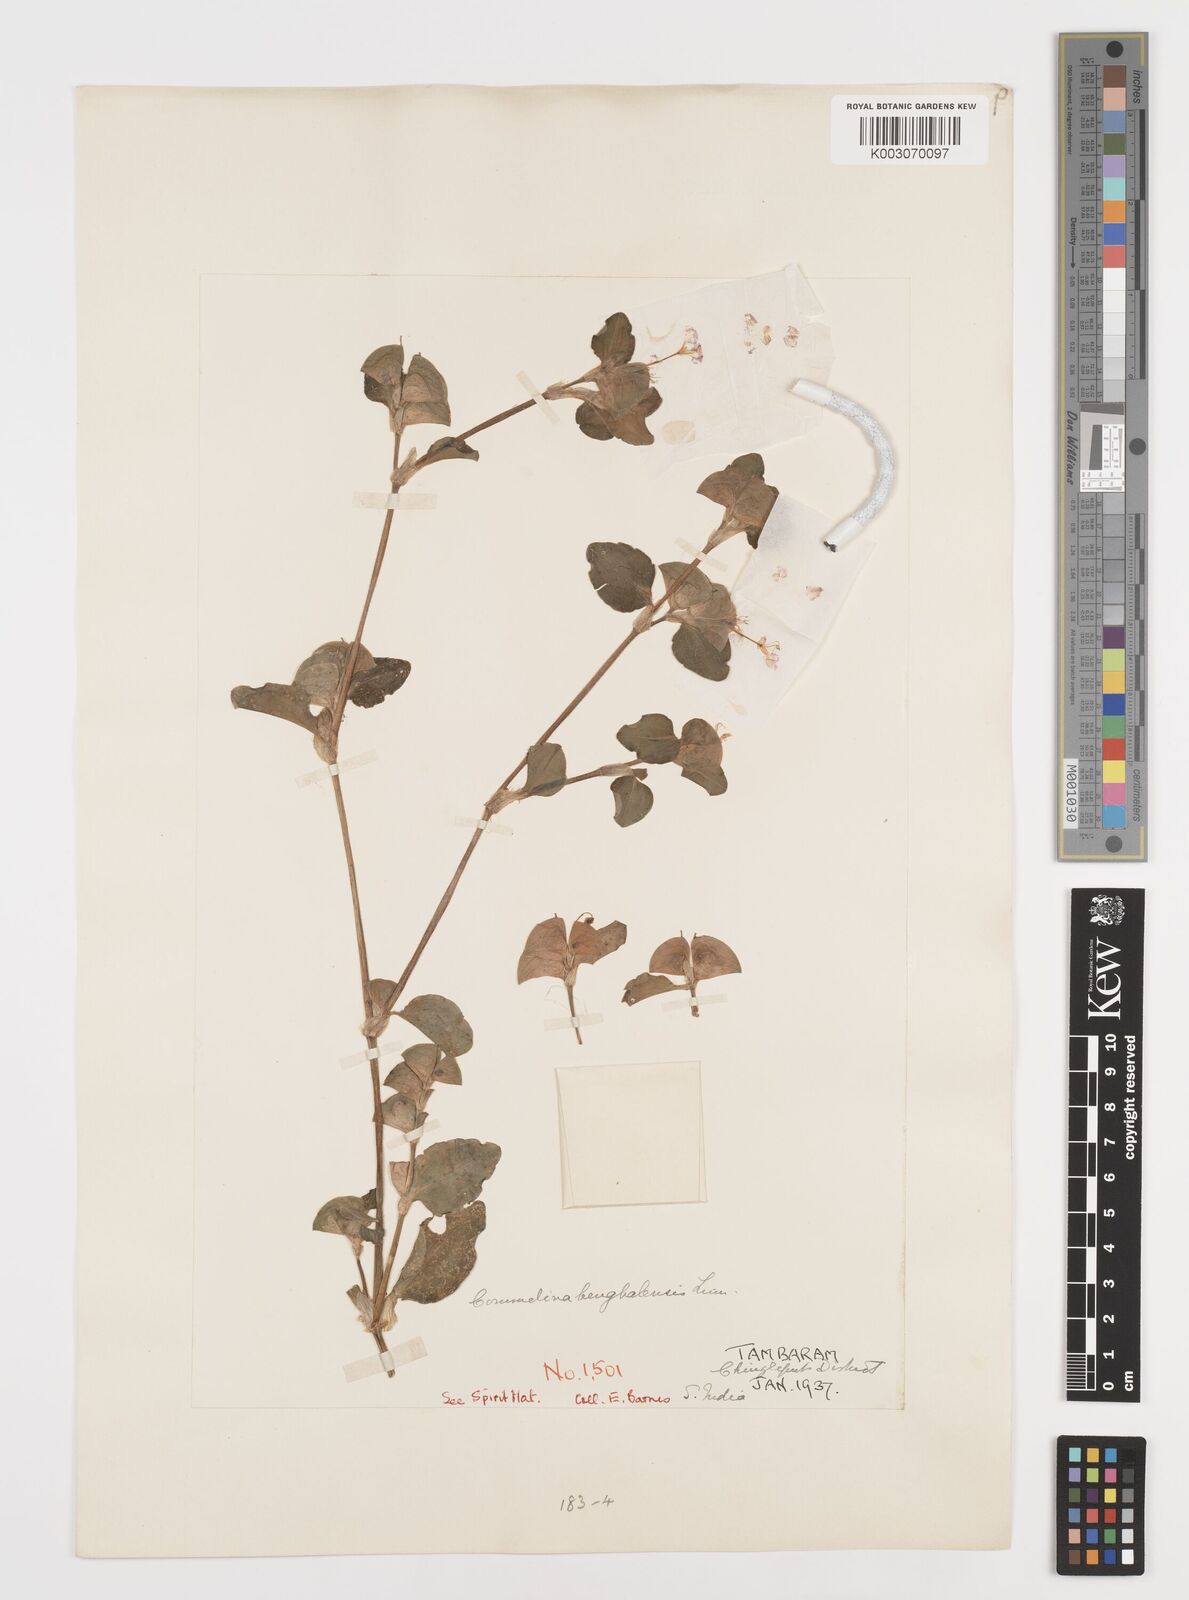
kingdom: Plantae
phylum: Tracheophyta
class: Liliopsida
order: Commelinales
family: Commelinaceae
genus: Commelina
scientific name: Commelina benghalensis
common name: Jio
